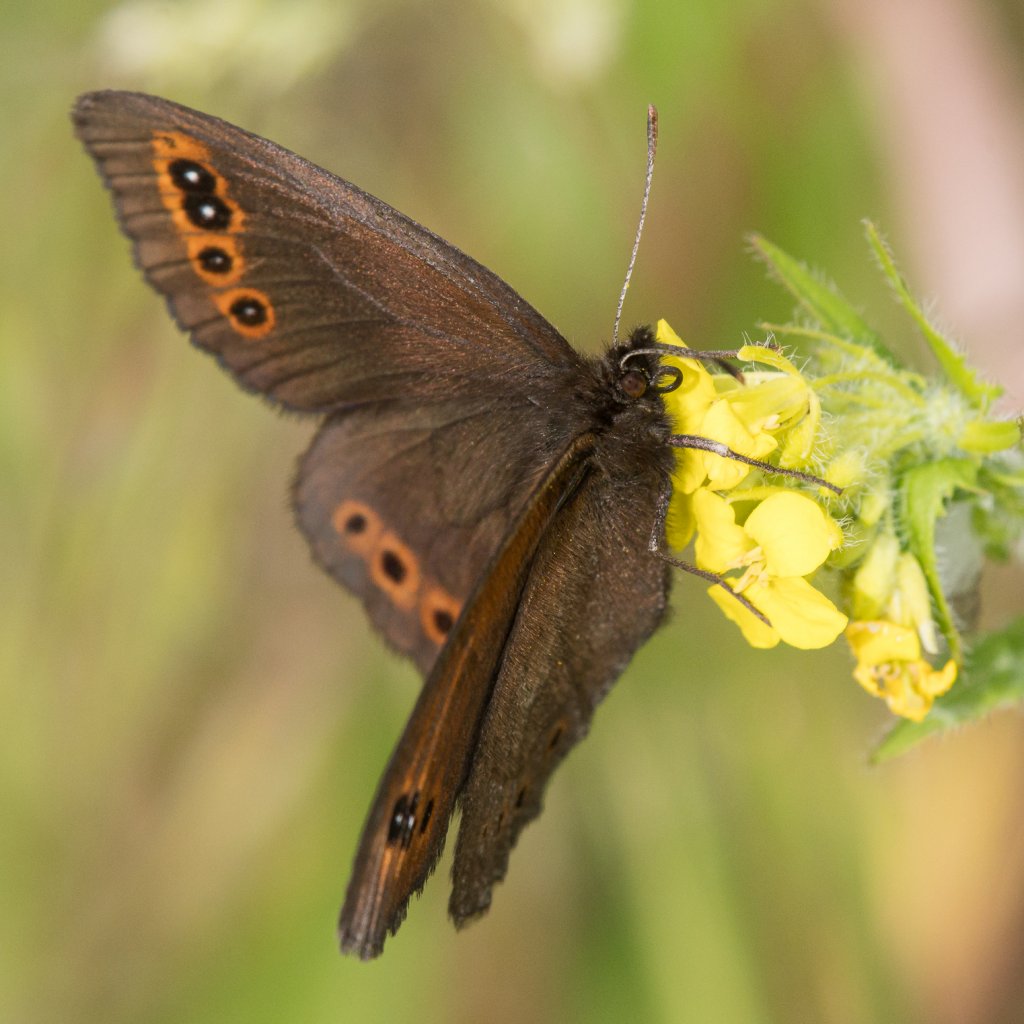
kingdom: Animalia
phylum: Arthropoda
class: Insecta
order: Lepidoptera
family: Nymphalidae
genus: Erebia
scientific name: Erebia epipsodea
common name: Common Alpine
